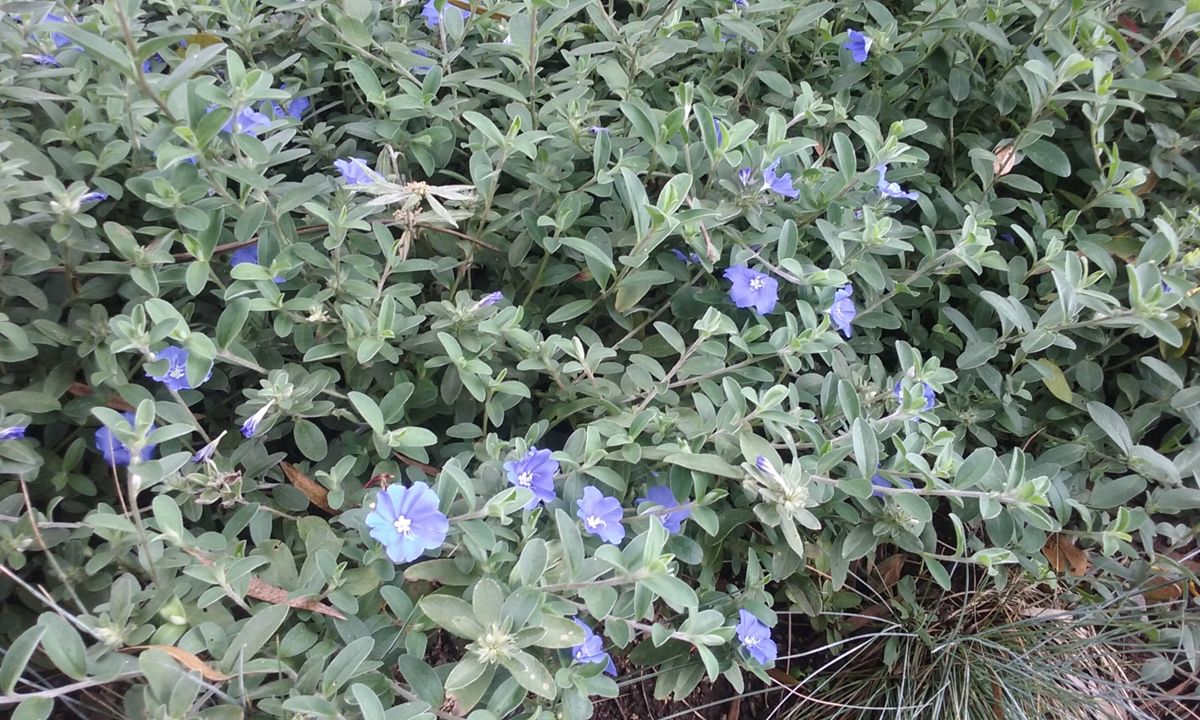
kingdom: Plantae
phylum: Tracheophyta
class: Magnoliopsida
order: Solanales
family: Convolvulaceae
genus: Evolvulus
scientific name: Evolvulus glomeratus
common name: Brazilian dwarf morning-glory
